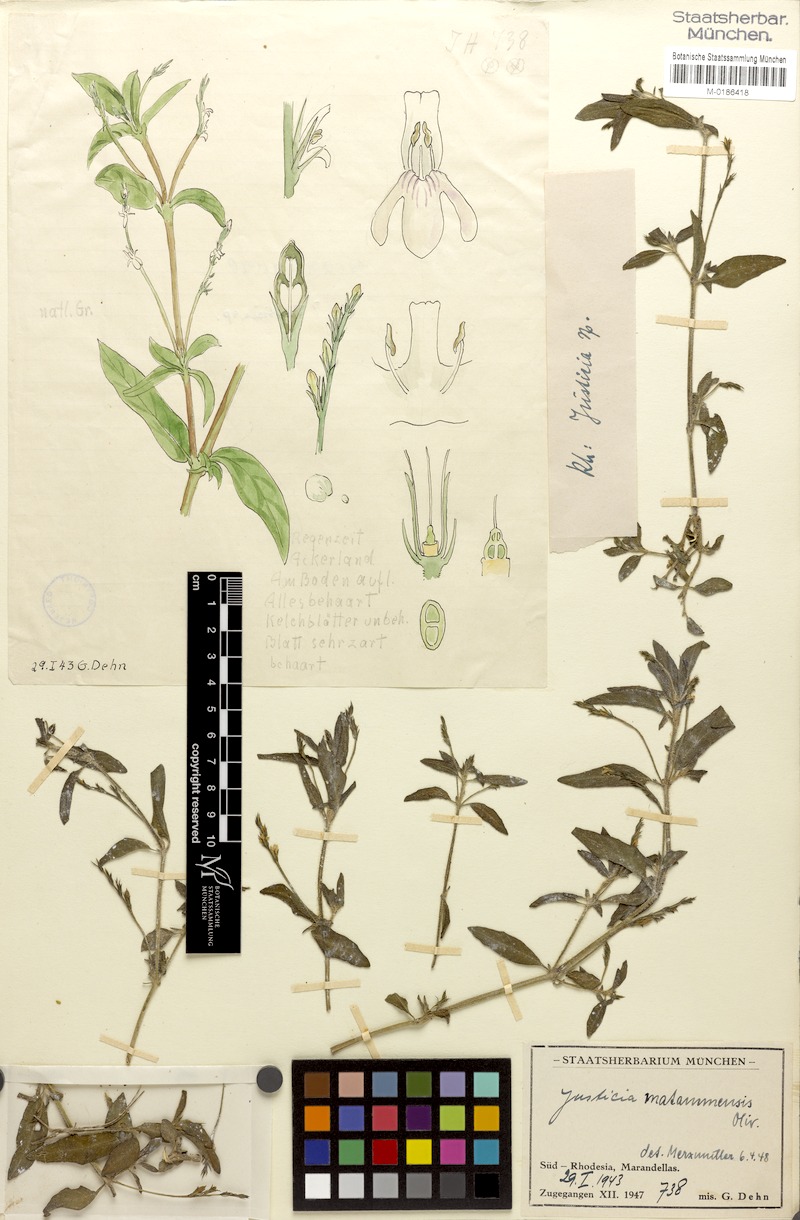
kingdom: Plantae
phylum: Tracheophyta
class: Magnoliopsida
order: Lamiales
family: Acanthaceae
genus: Justicia
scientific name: Justicia matammensis
